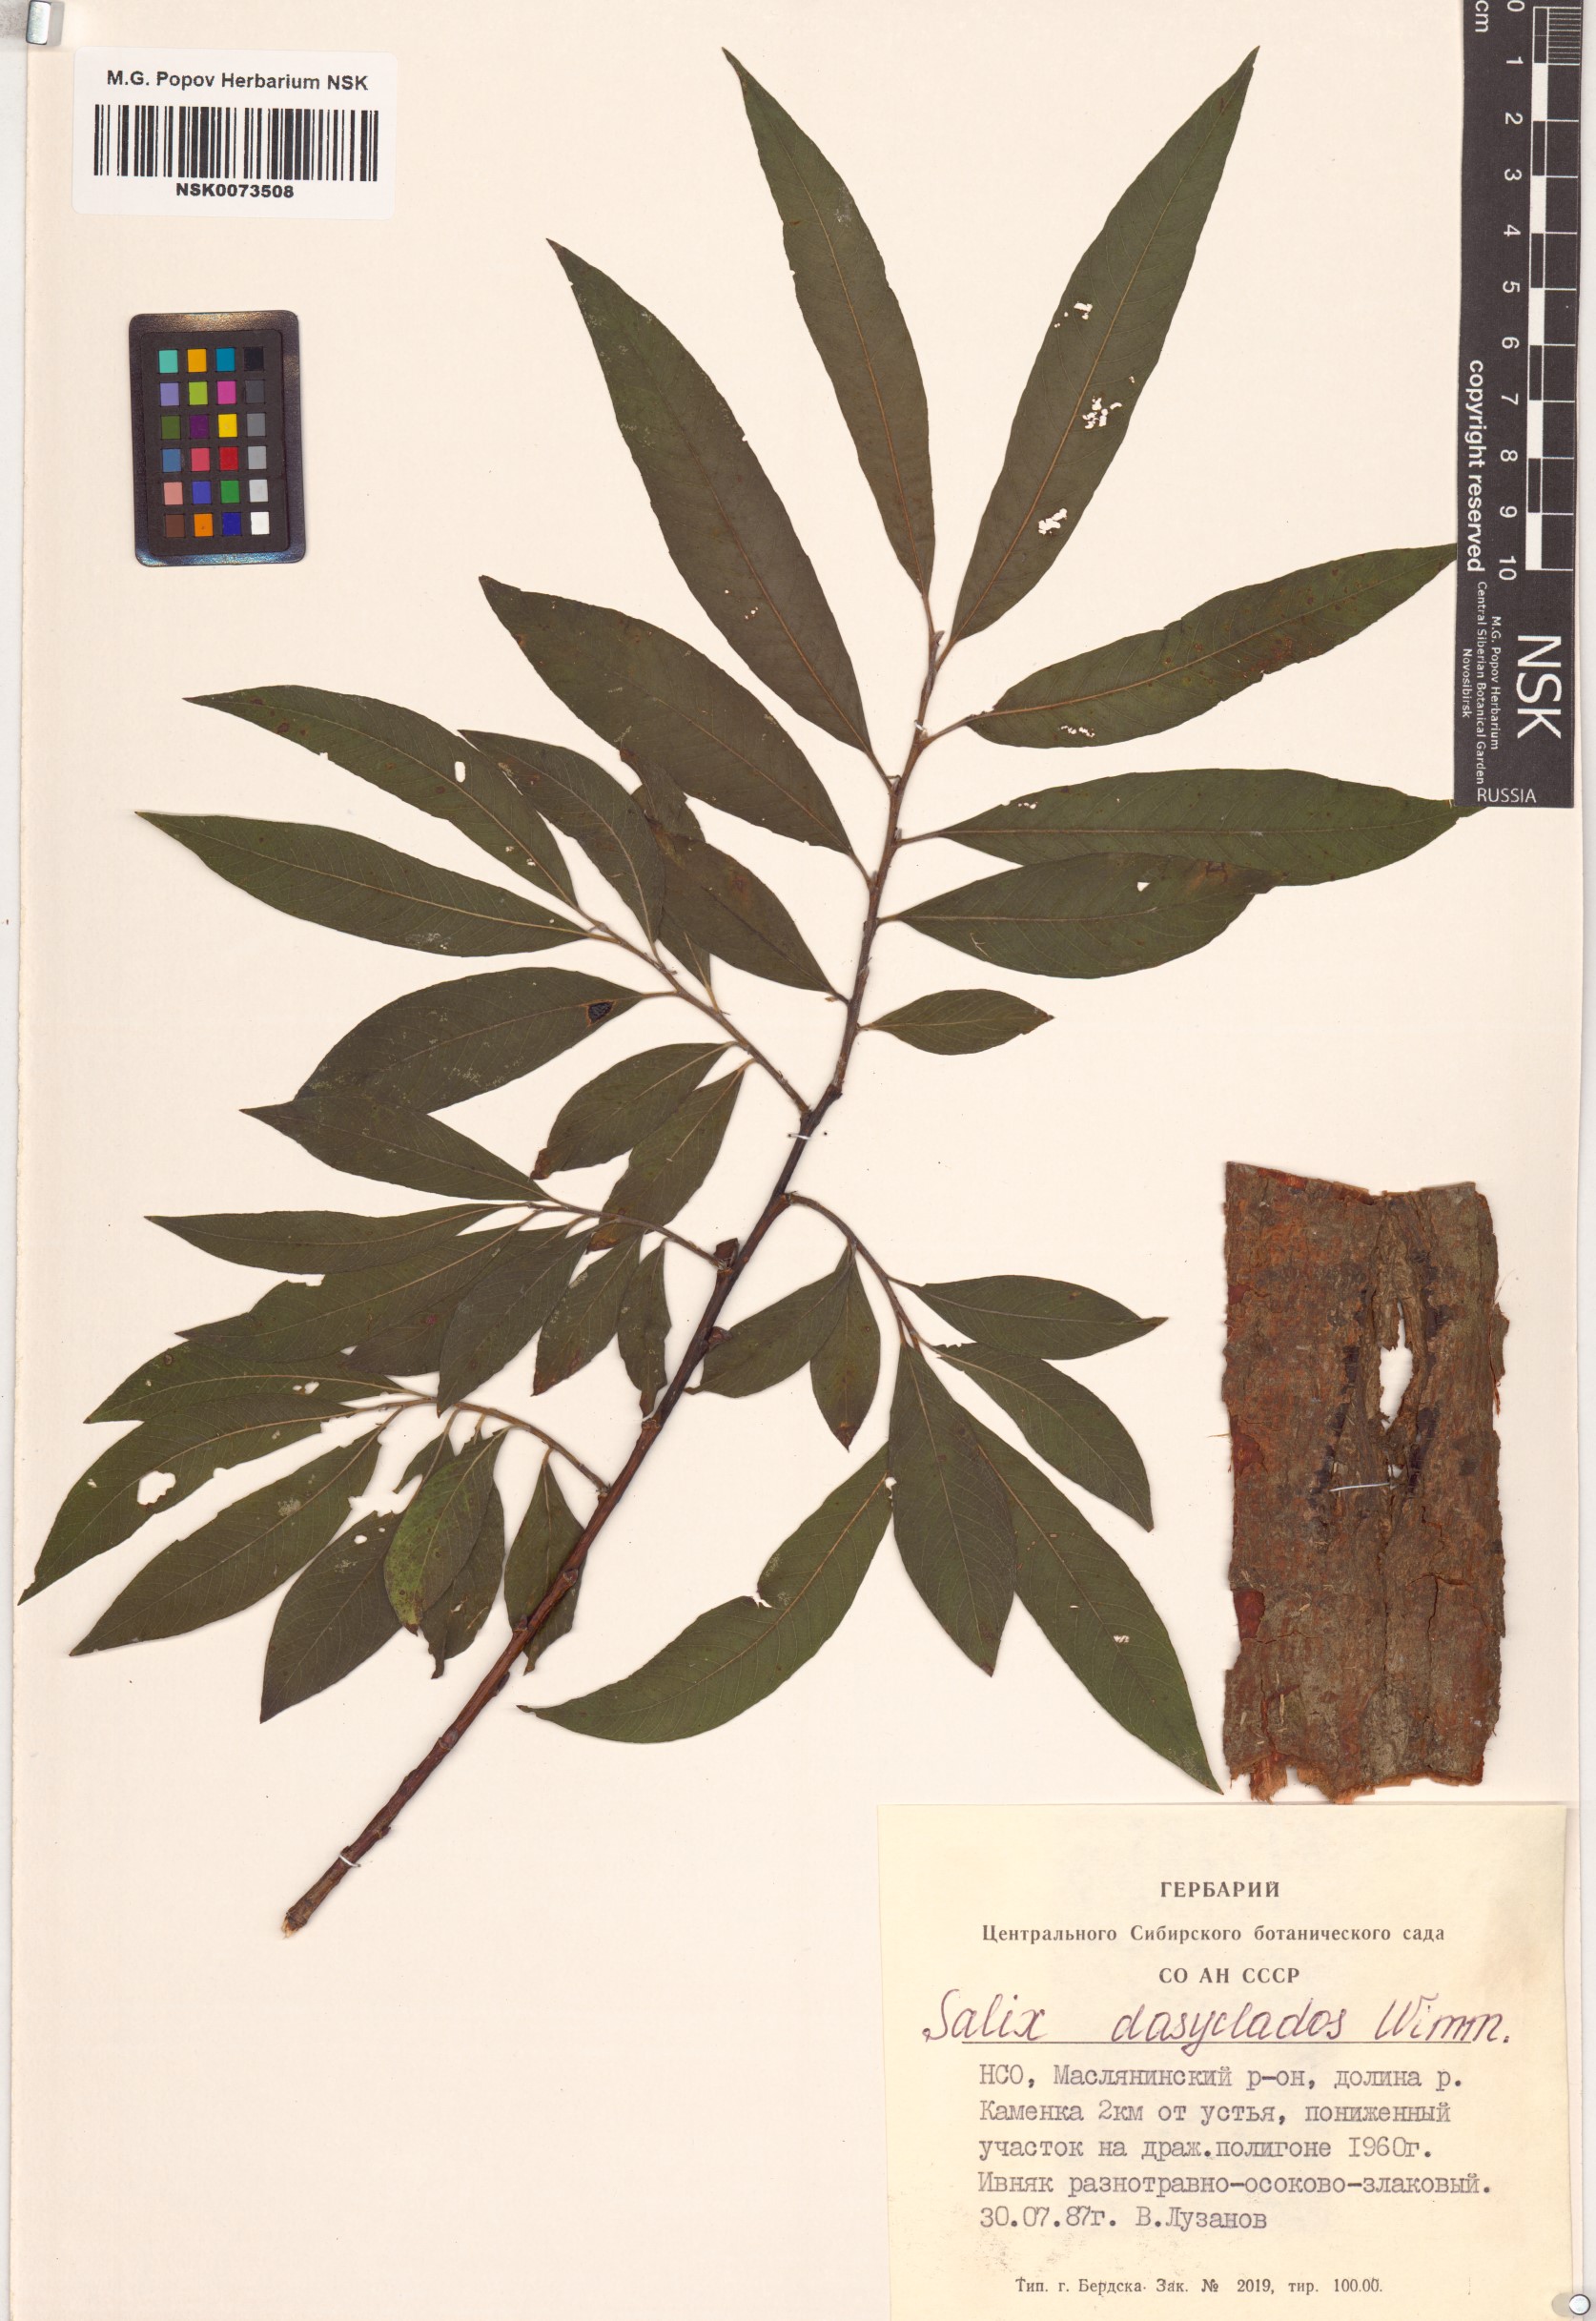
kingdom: Plantae
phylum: Tracheophyta
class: Magnoliopsida
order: Malpighiales
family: Salicaceae
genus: Salix
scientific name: Salix gmelinii
